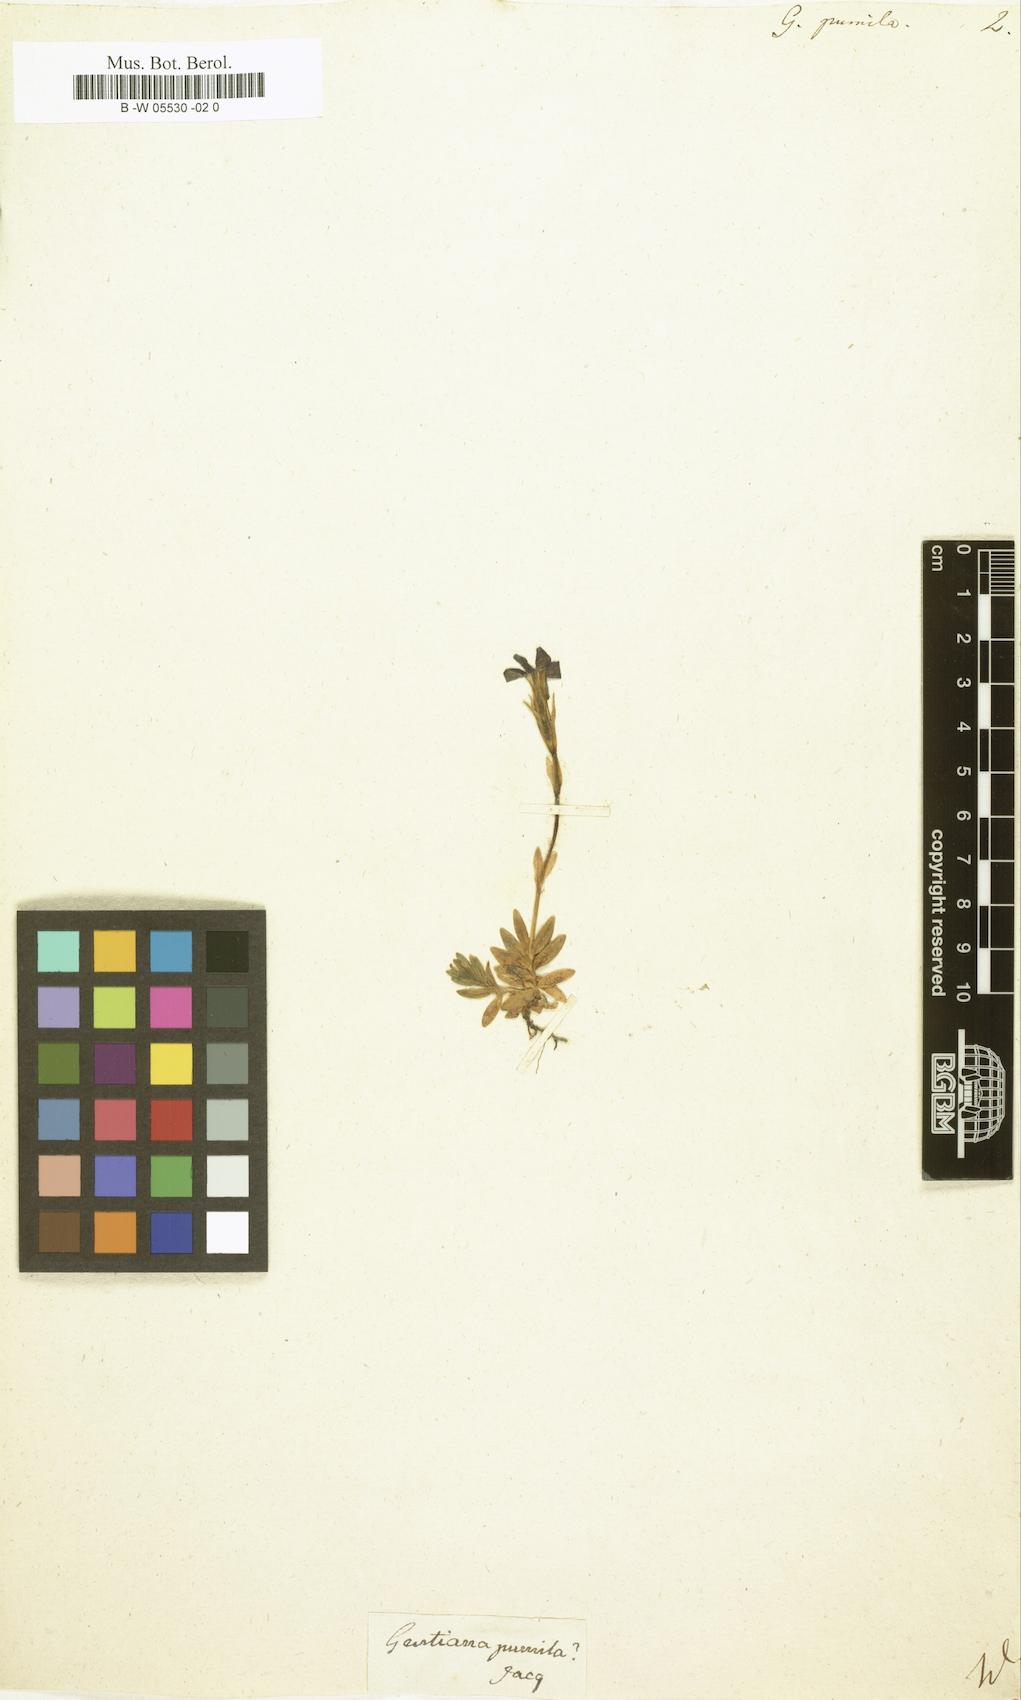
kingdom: Plantae
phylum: Tracheophyta
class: Magnoliopsida
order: Gentianales
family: Gentianaceae
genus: Gentiana
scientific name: Gentiana pumila
